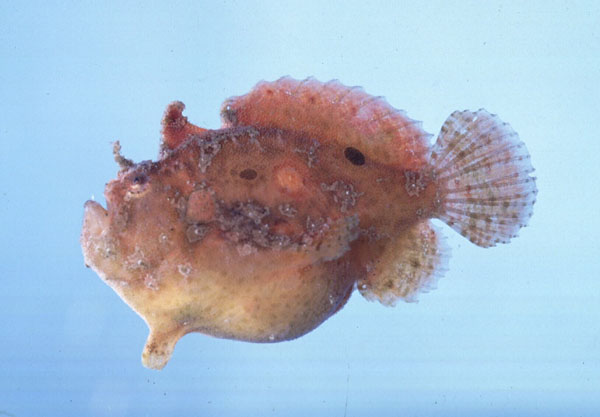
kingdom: Animalia
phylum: Chordata
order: Lophiiformes
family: Antennariidae
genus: Antennatus
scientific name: Antennatus coccineus
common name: Scarlet frogfish
